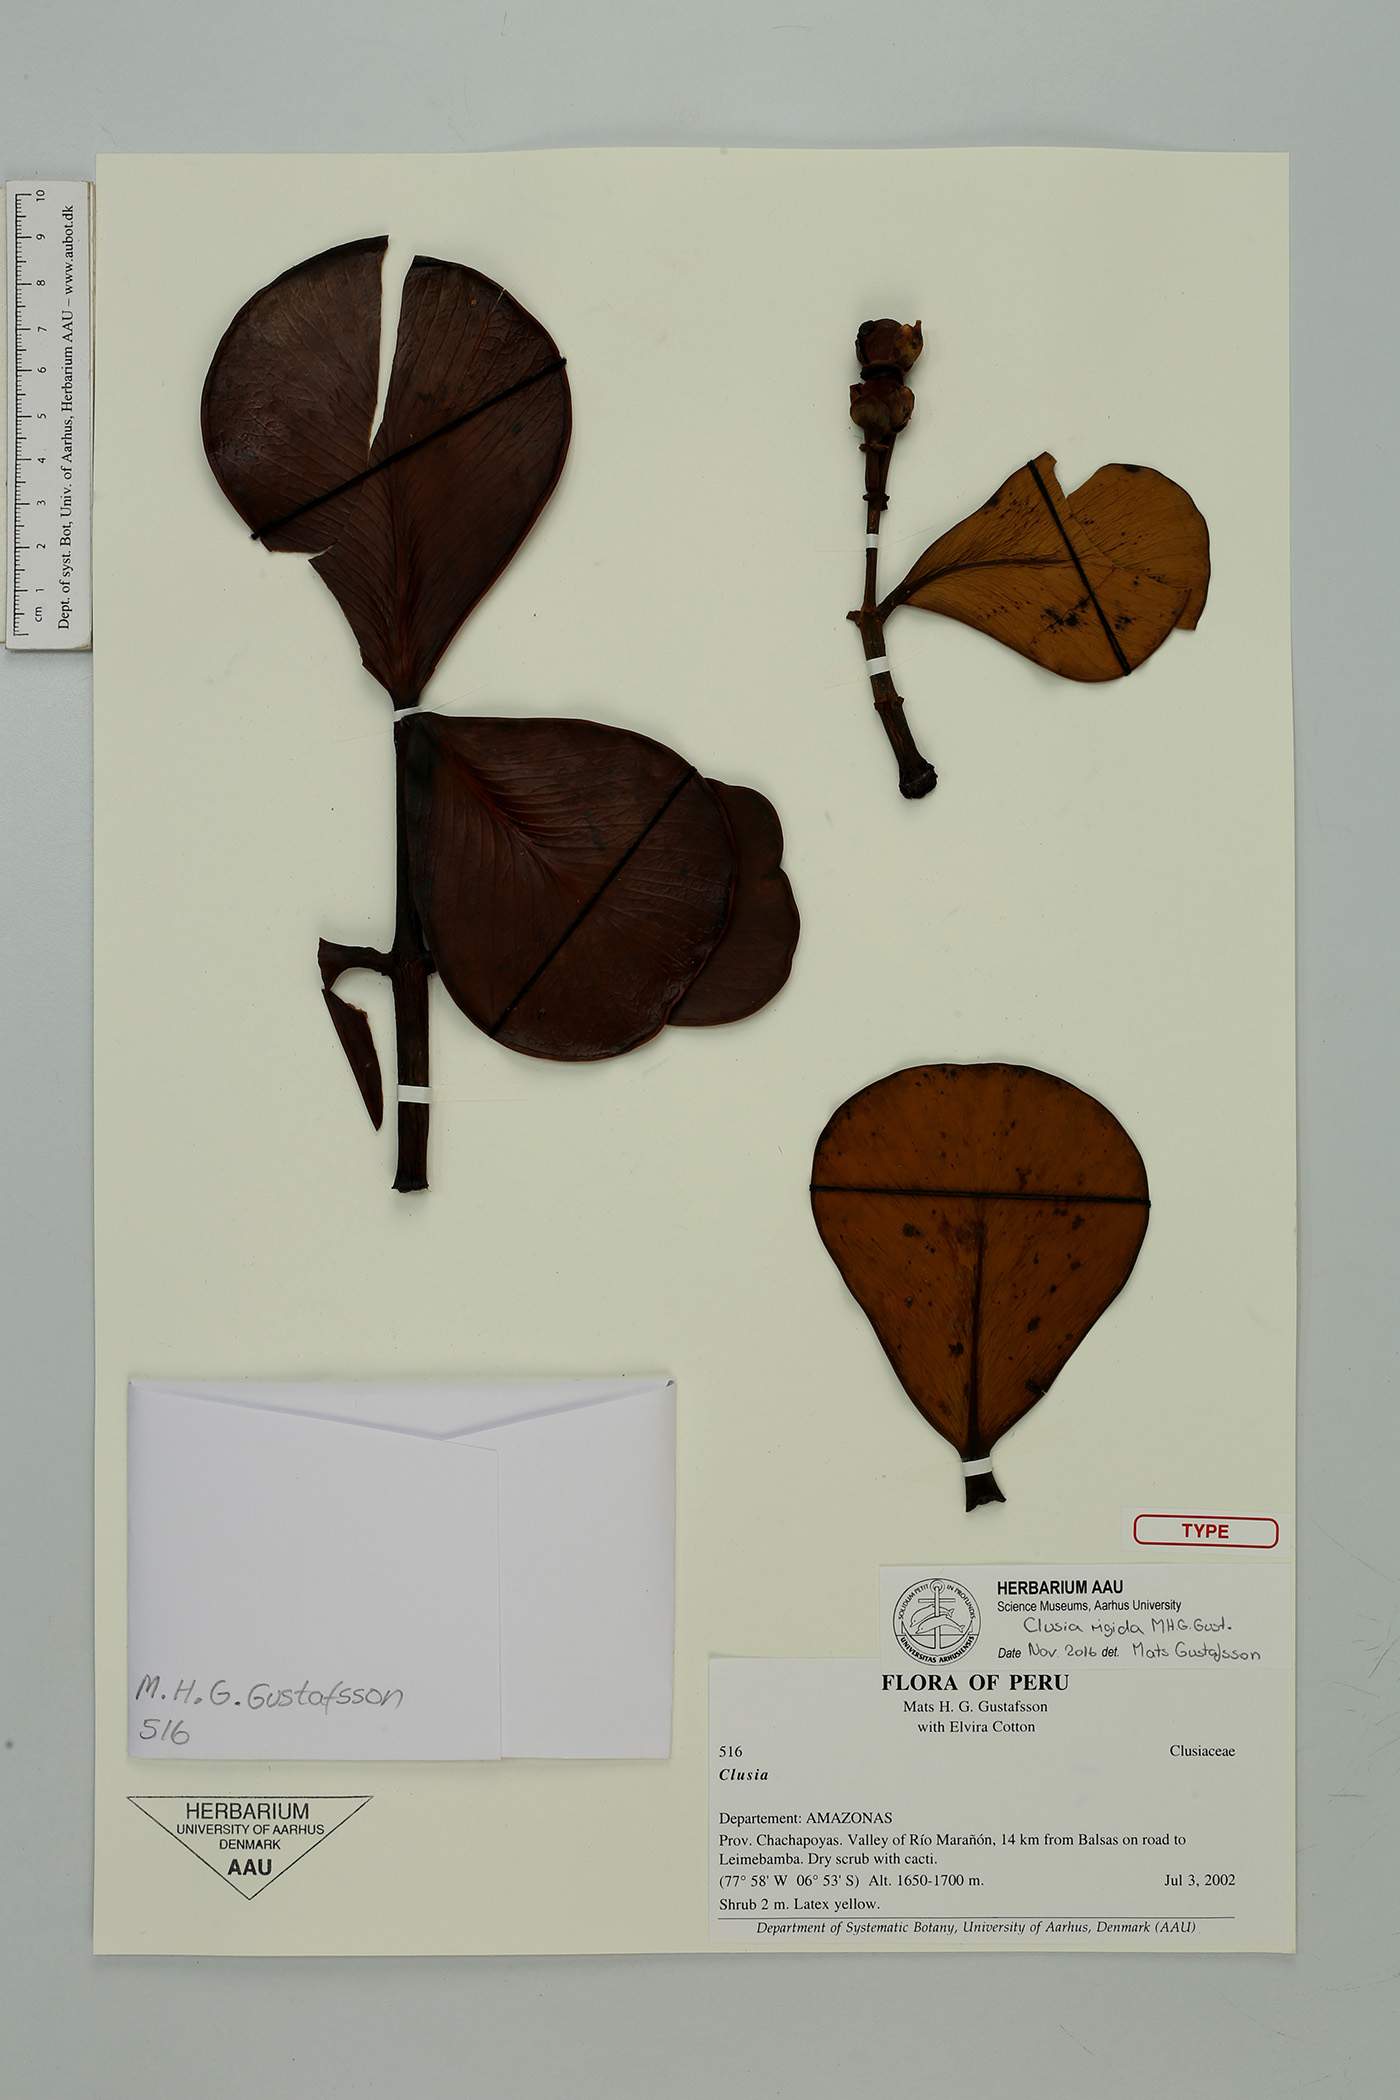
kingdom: Plantae
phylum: Tracheophyta
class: Magnoliopsida
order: Malpighiales
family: Clusiaceae
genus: Clusia
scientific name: Clusia rigida
